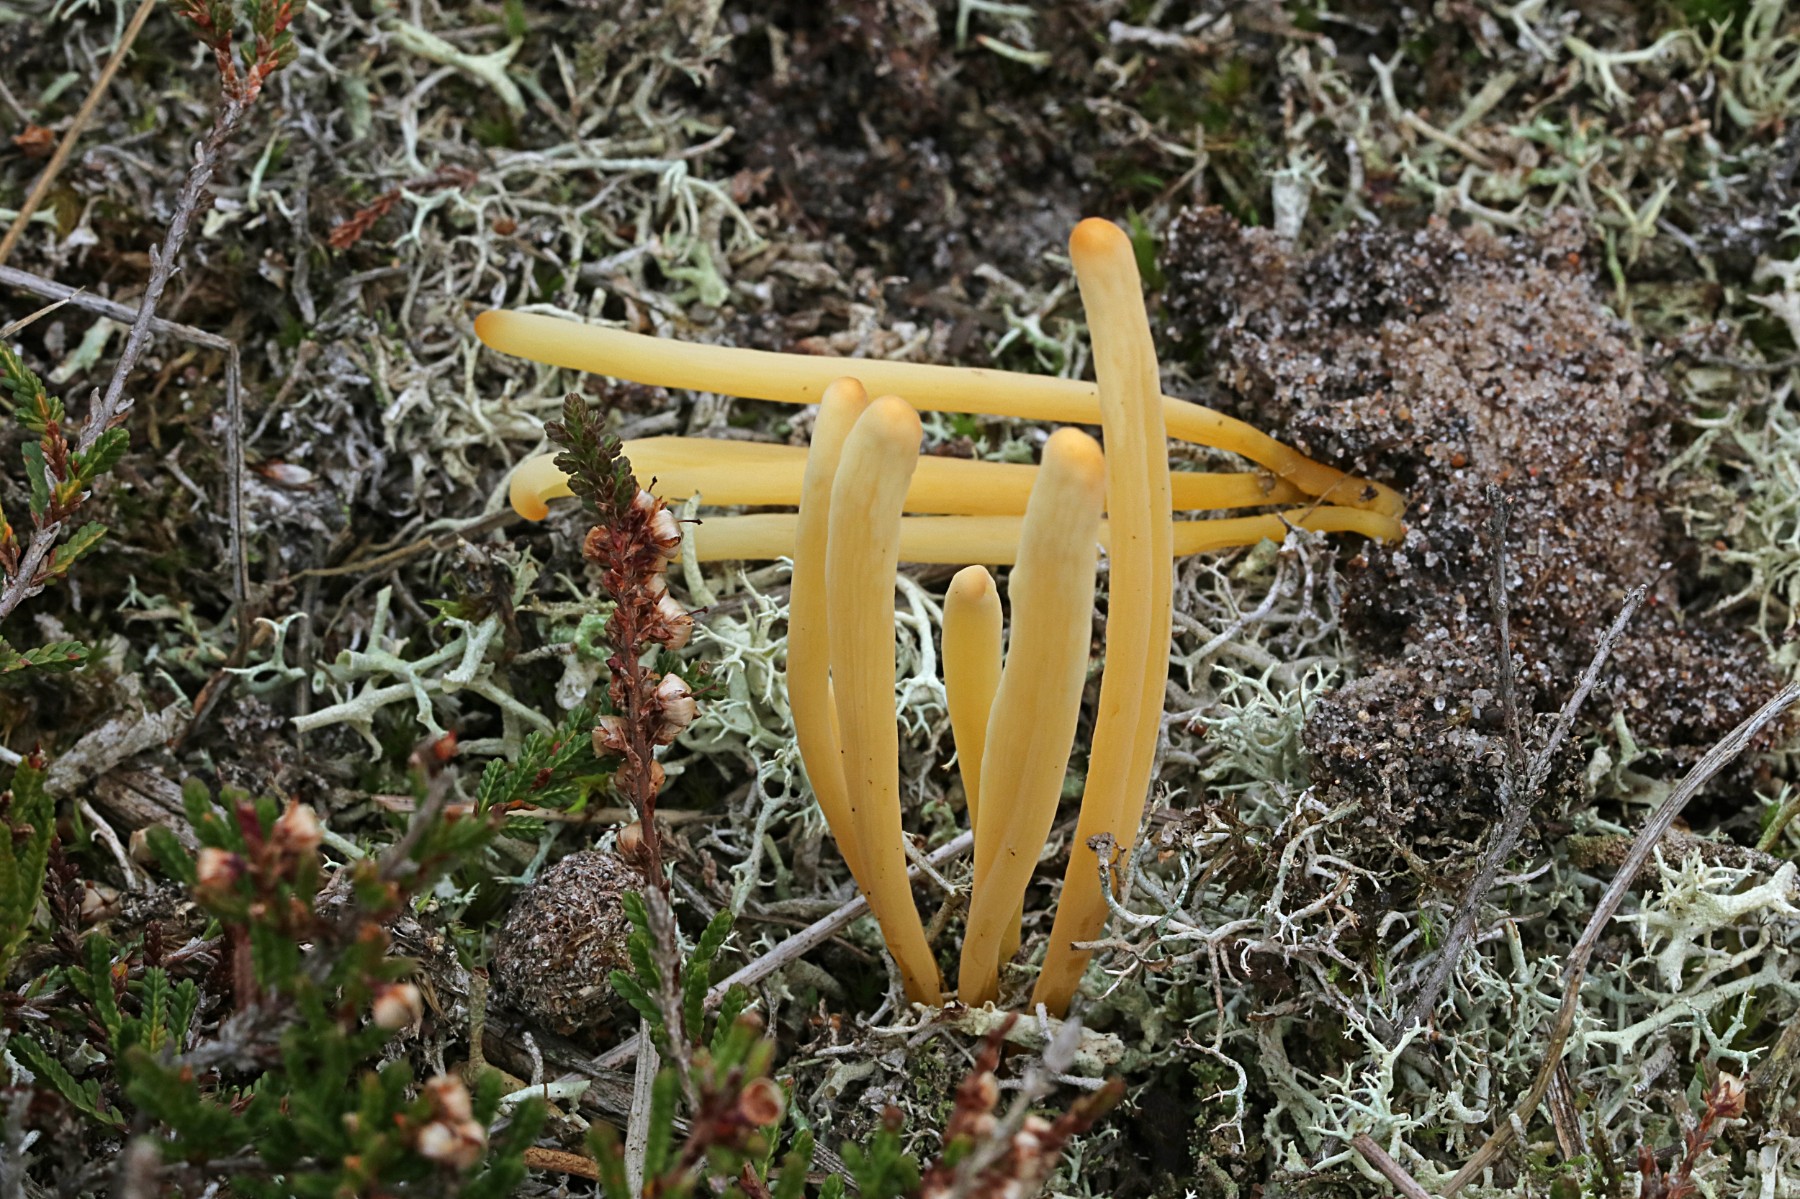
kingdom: Fungi
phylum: Basidiomycota
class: Agaricomycetes
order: Agaricales
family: Clavariaceae
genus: Clavaria
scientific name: Clavaria argillacea
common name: lerfarvet køllesvamp
